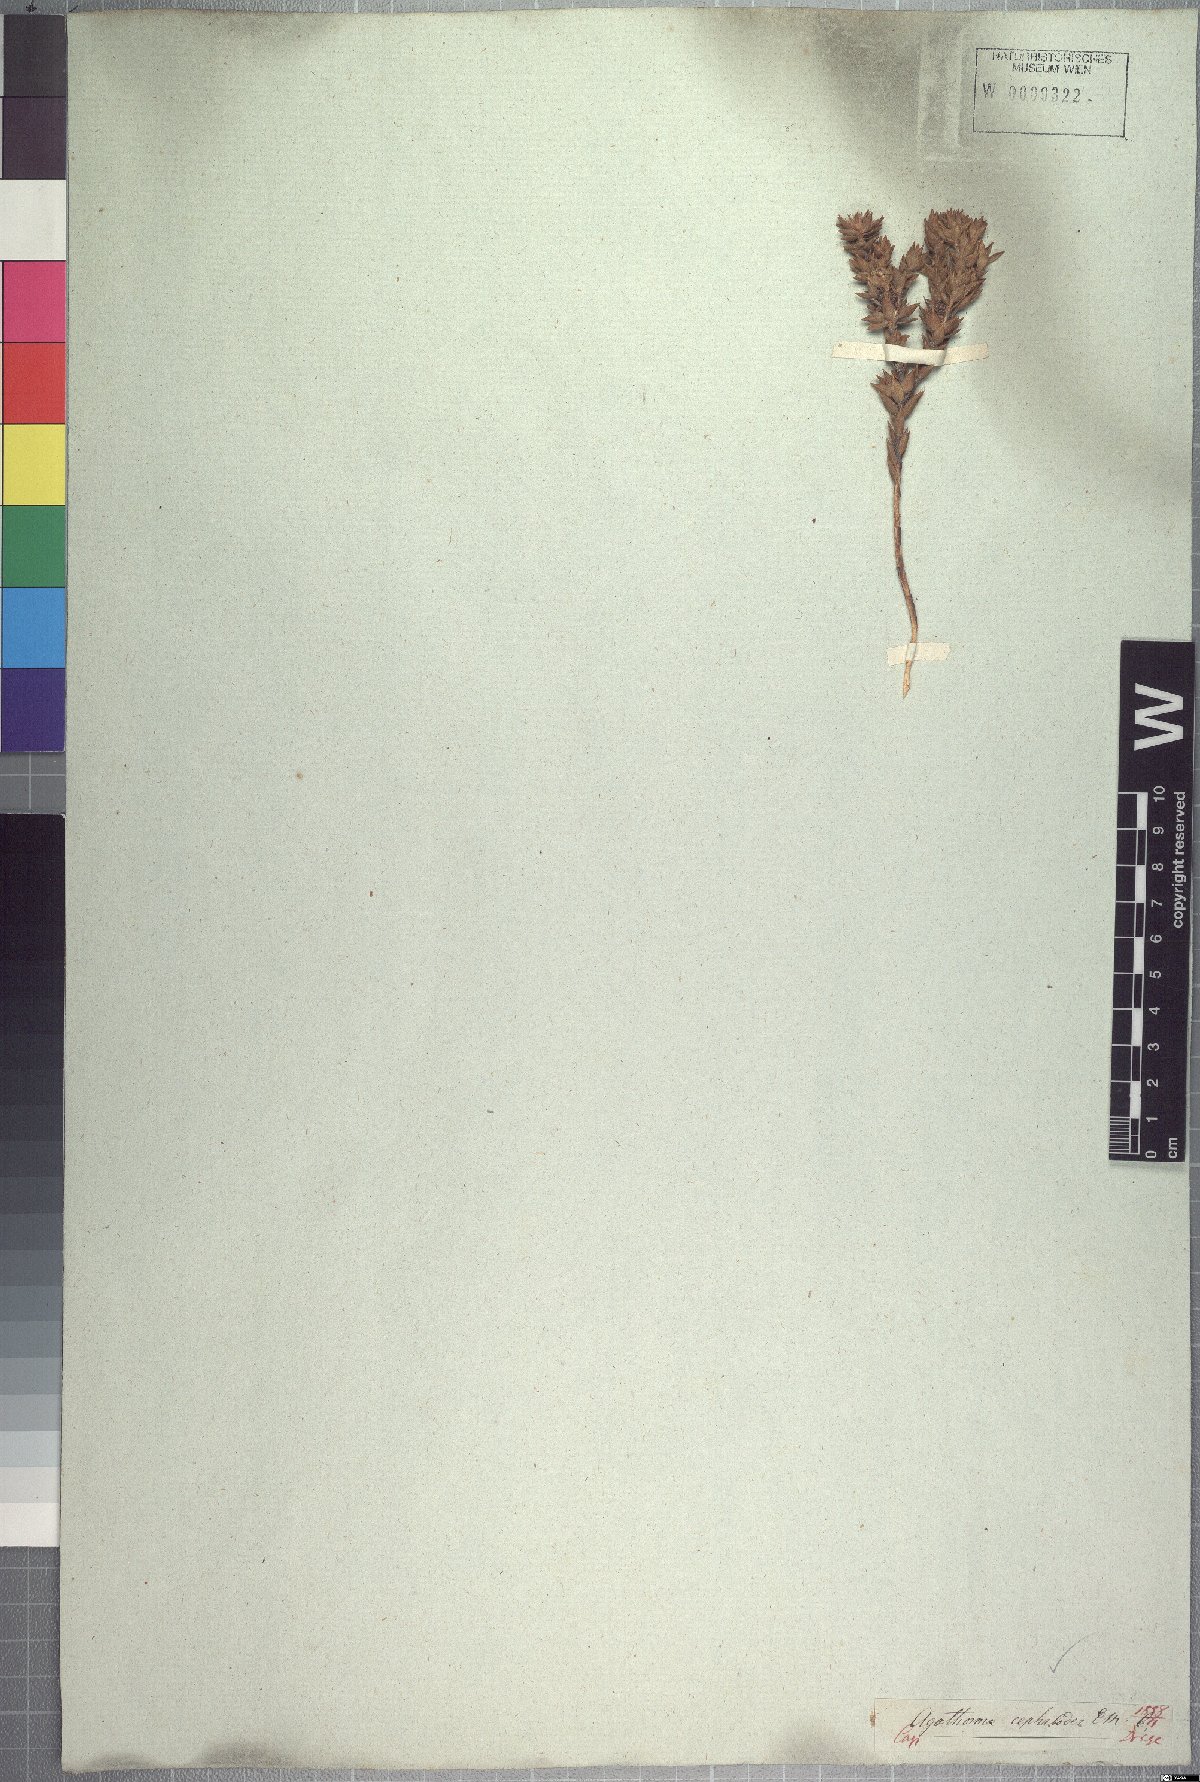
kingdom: Plantae
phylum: Tracheophyta
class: Magnoliopsida
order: Sapindales
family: Rutaceae
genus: Agathosma
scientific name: Agathosma cephalotes
